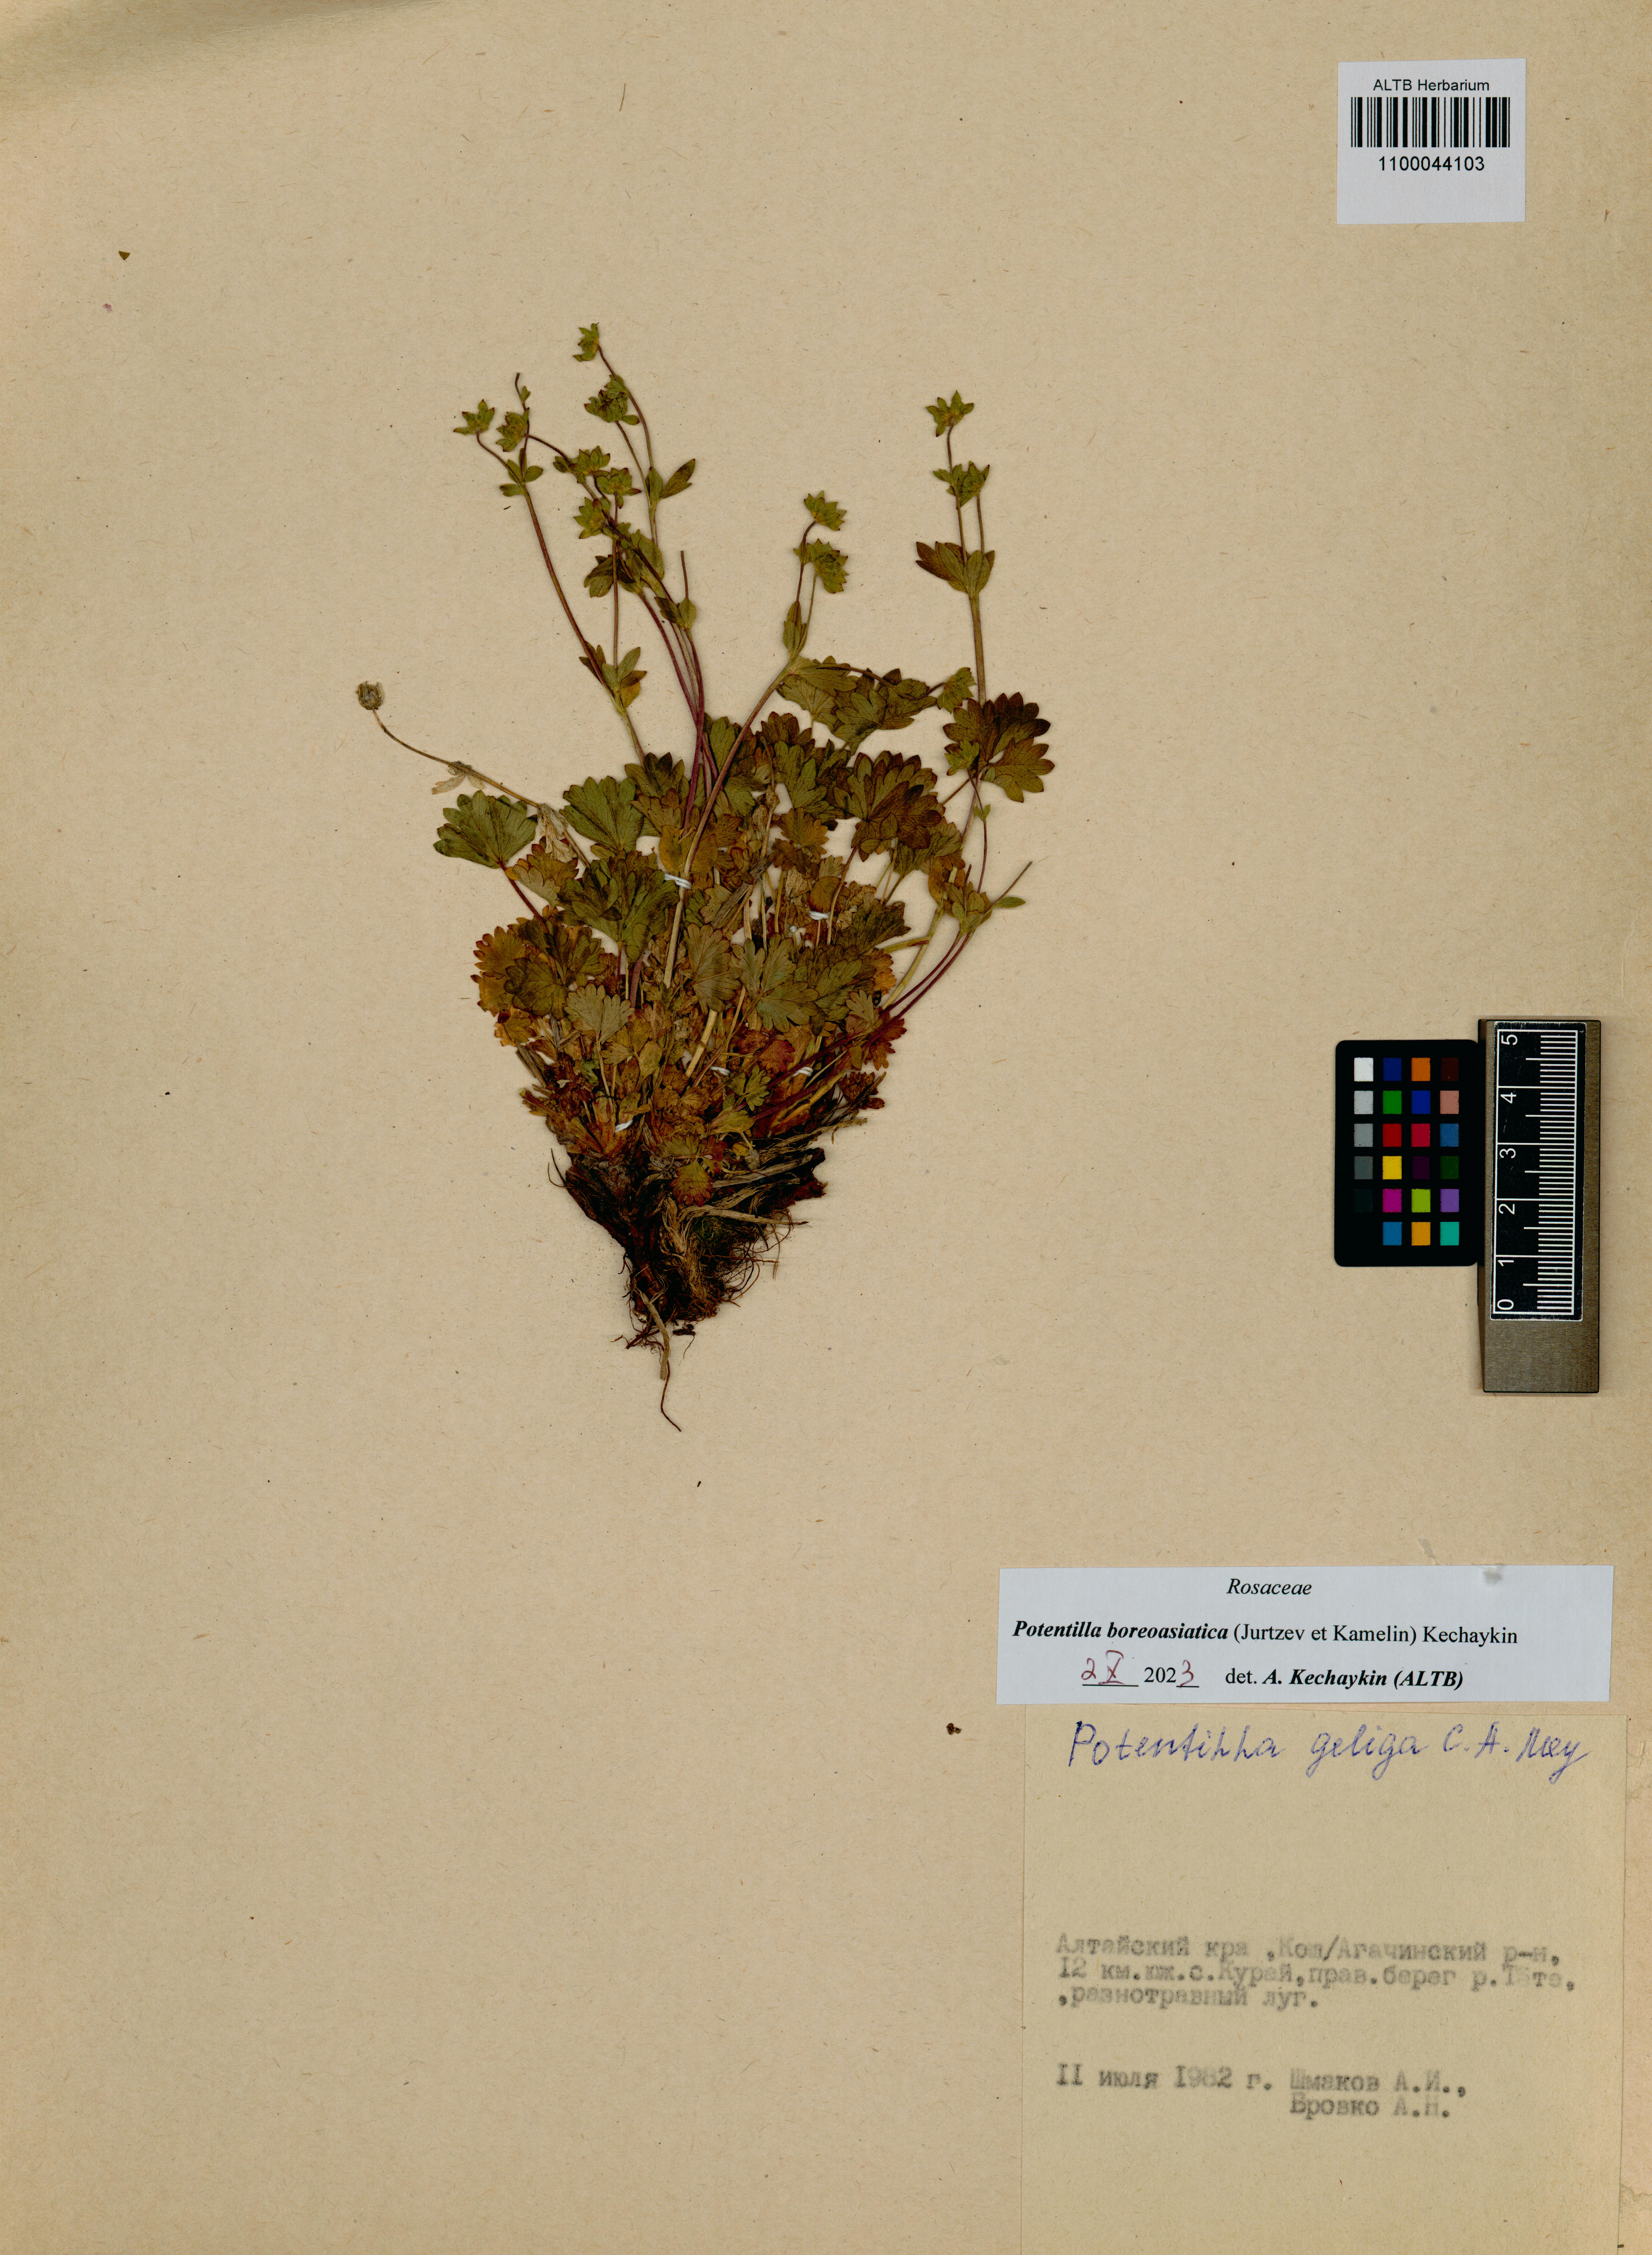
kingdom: Plantae
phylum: Tracheophyta
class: Magnoliopsida
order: Rosales
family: Rosaceae
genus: Potentilla
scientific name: Potentilla
